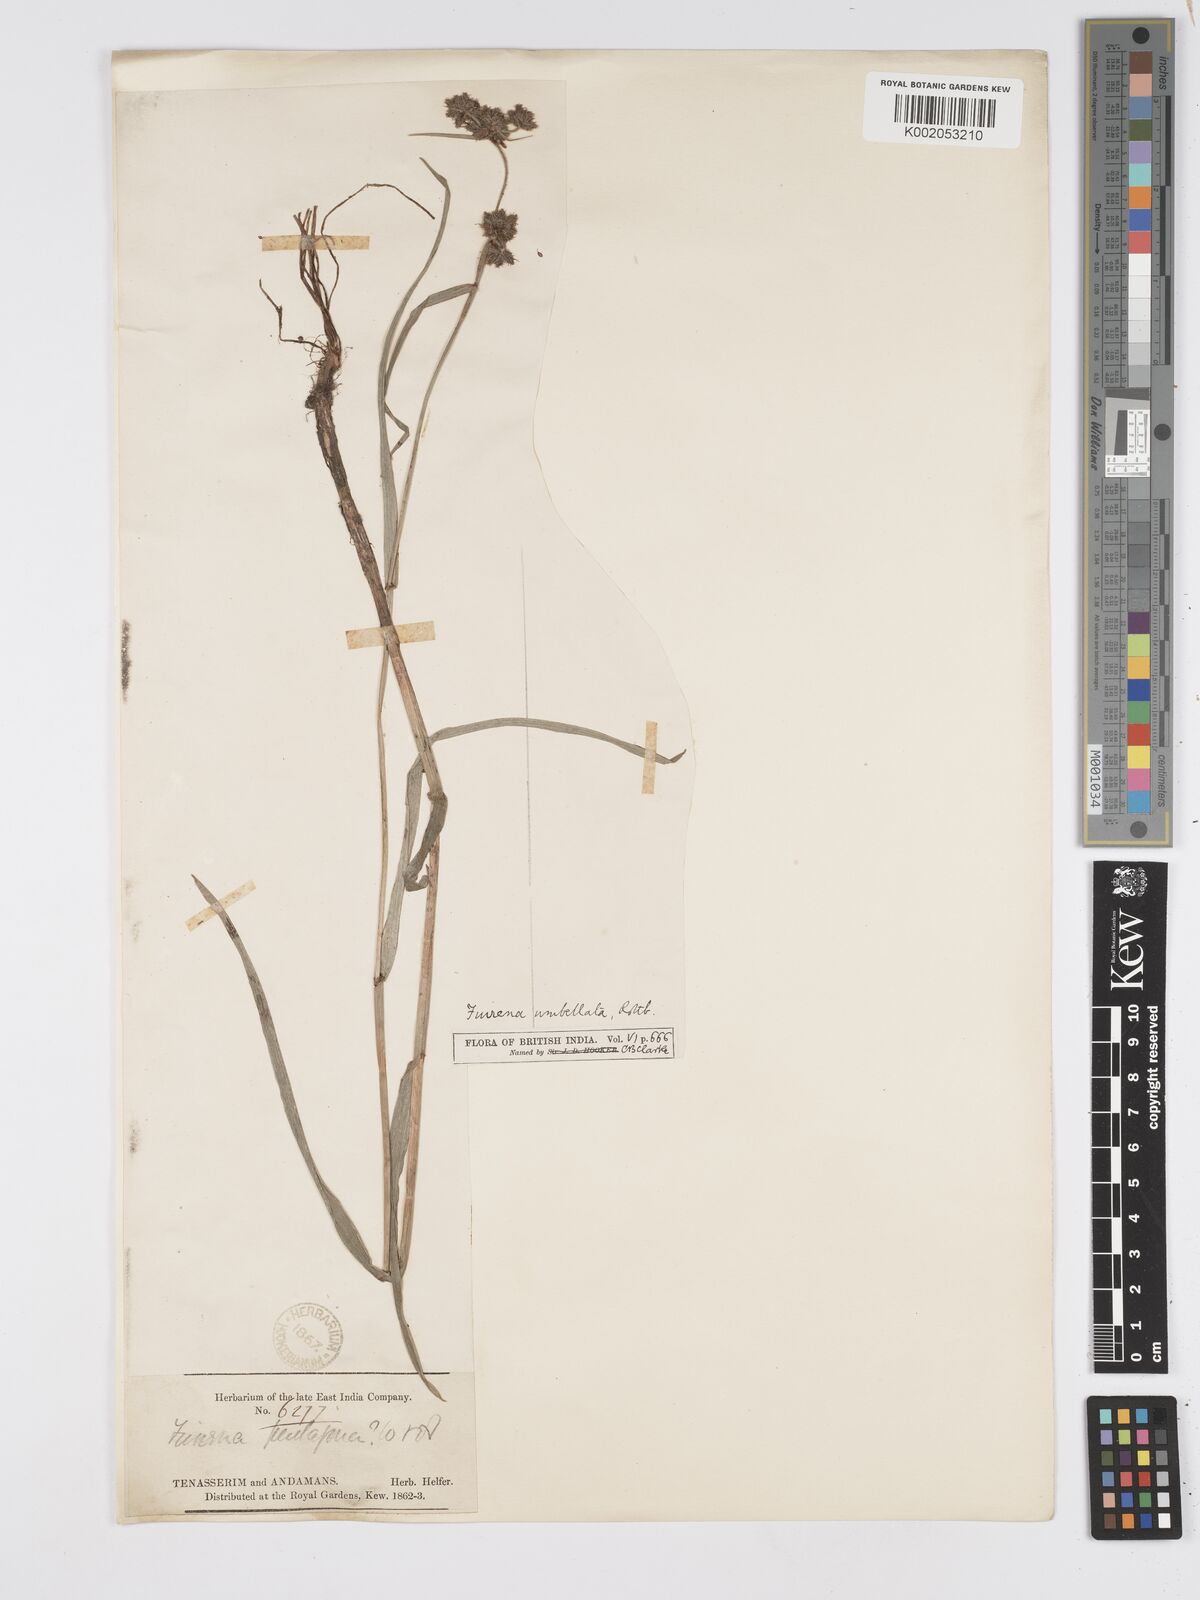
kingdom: Plantae
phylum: Tracheophyta
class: Liliopsida
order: Poales
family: Cyperaceae
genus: Fuirena
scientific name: Fuirena umbellata
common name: Yefen
